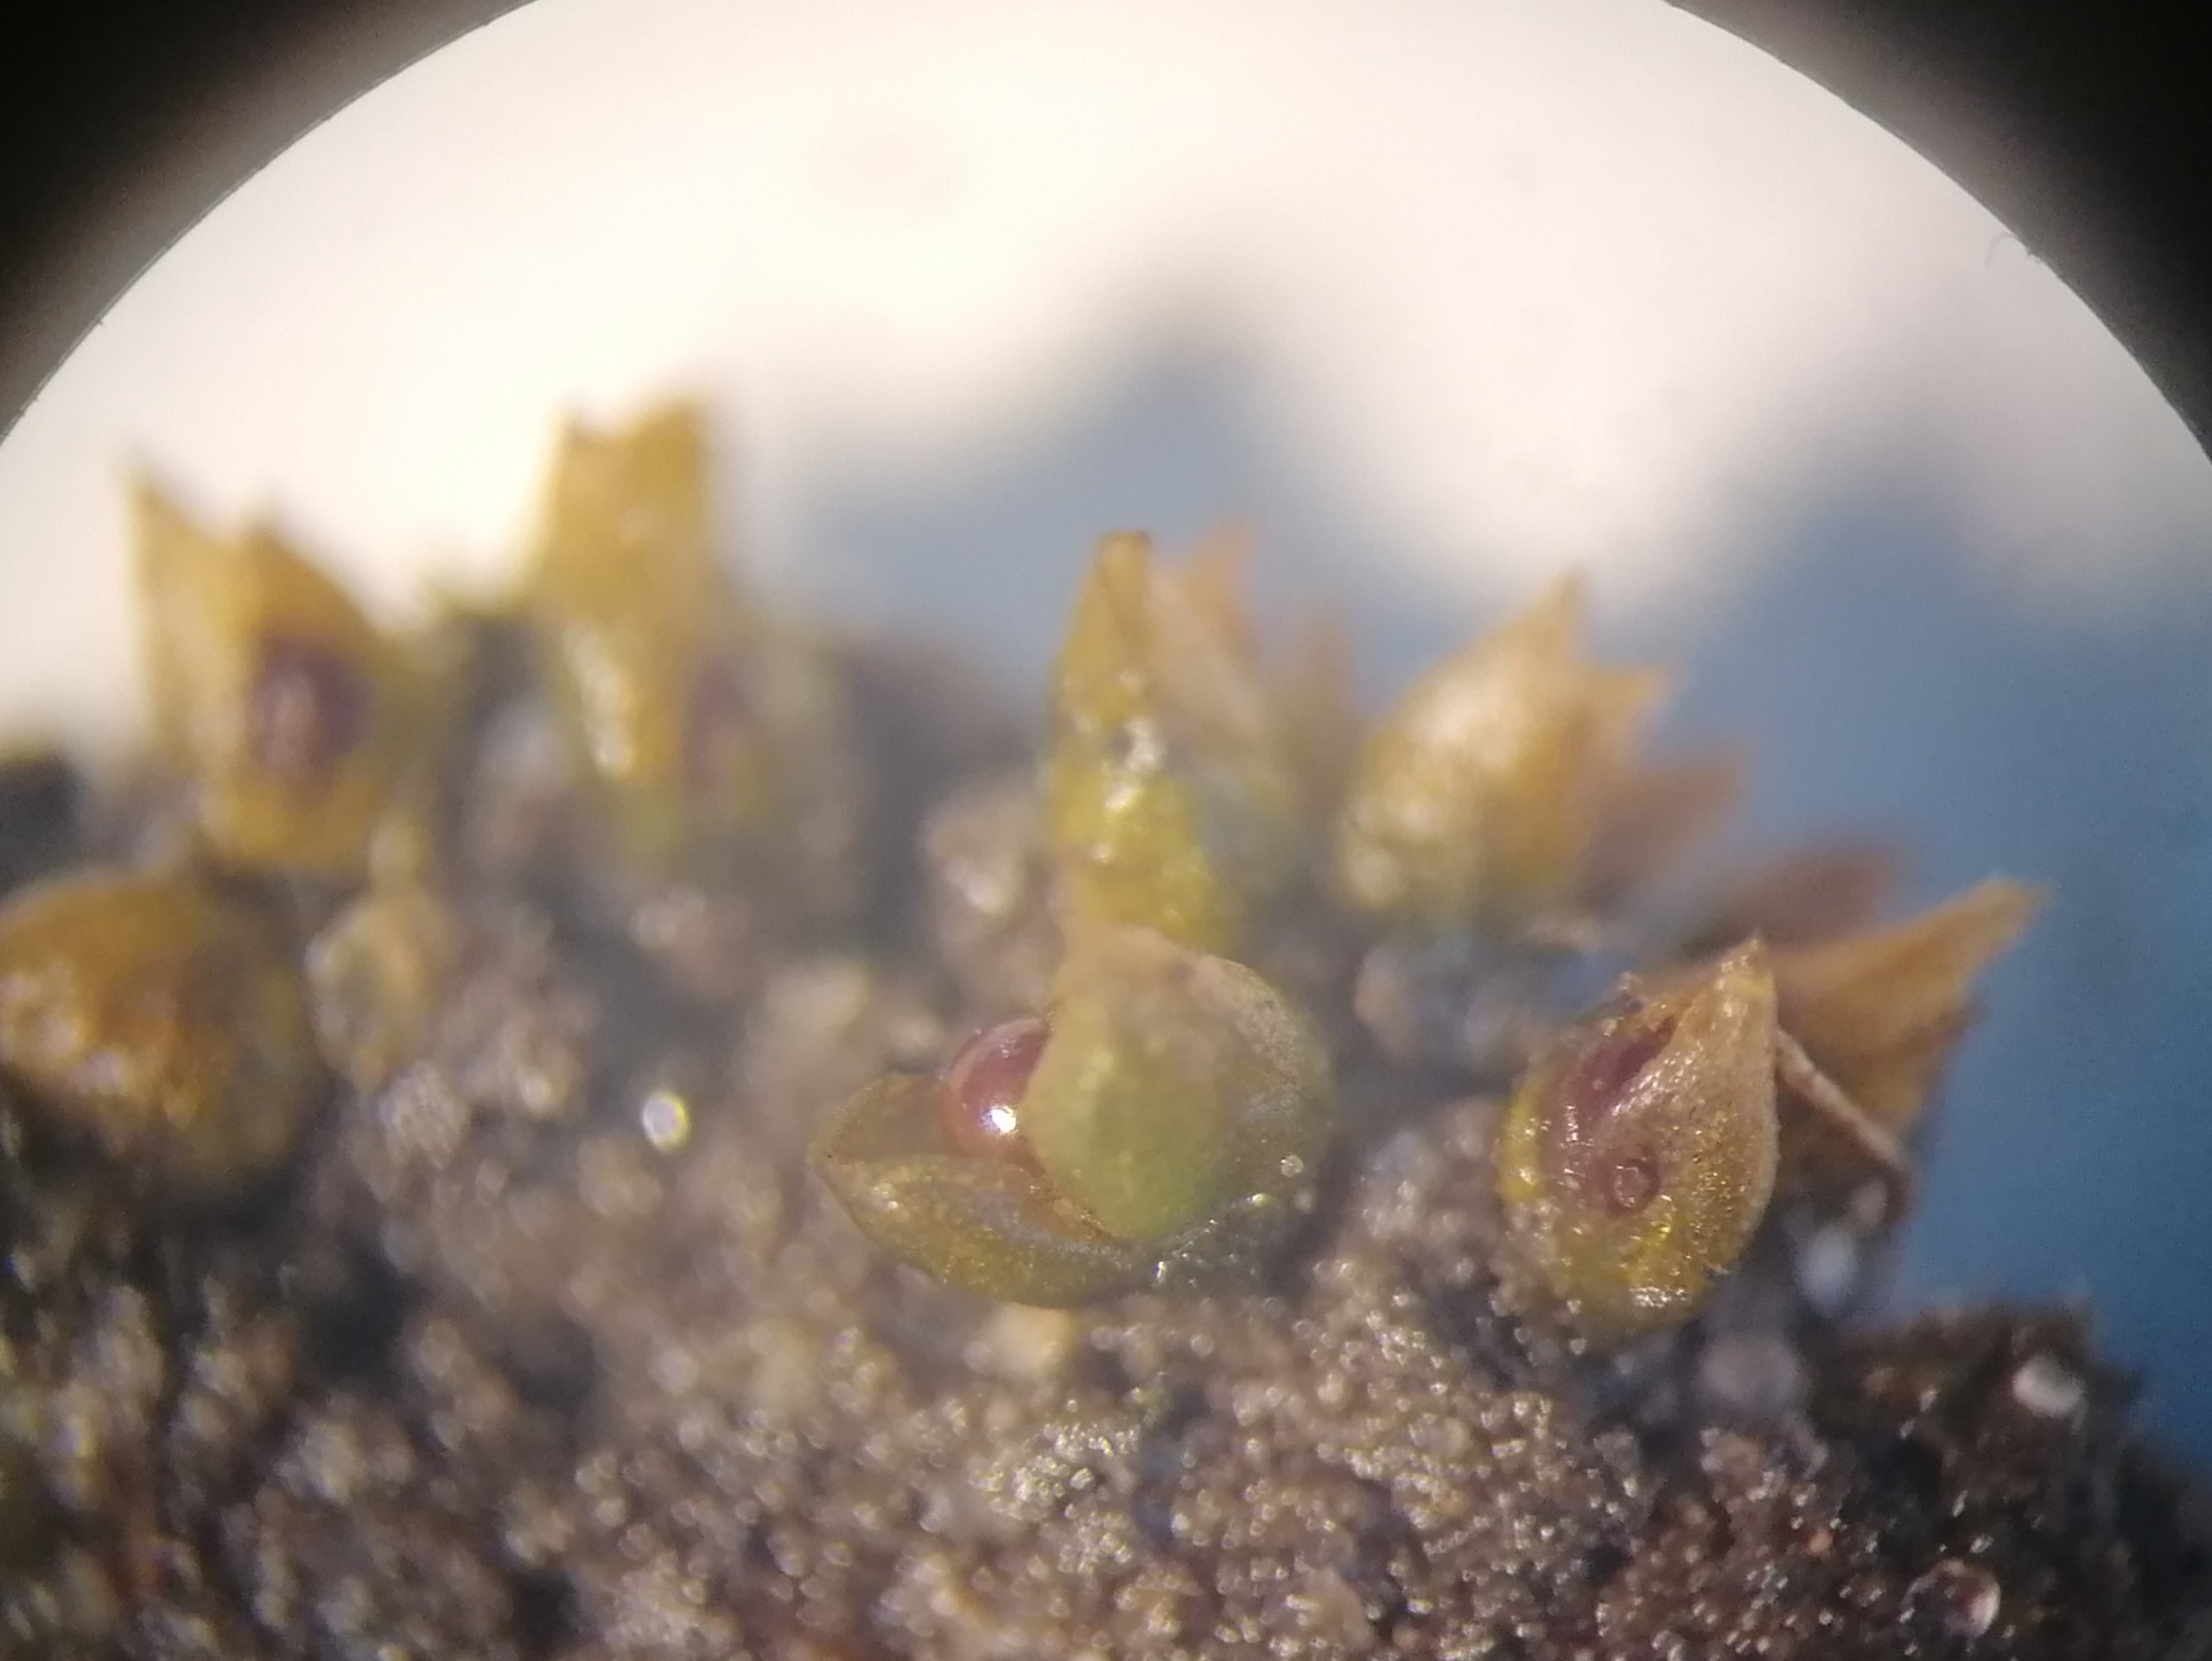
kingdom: Plantae
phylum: Bryophyta
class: Bryopsida
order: Pottiales
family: Pottiaceae
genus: Acaulon
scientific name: Acaulon muticum
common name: Siddende ægmos
